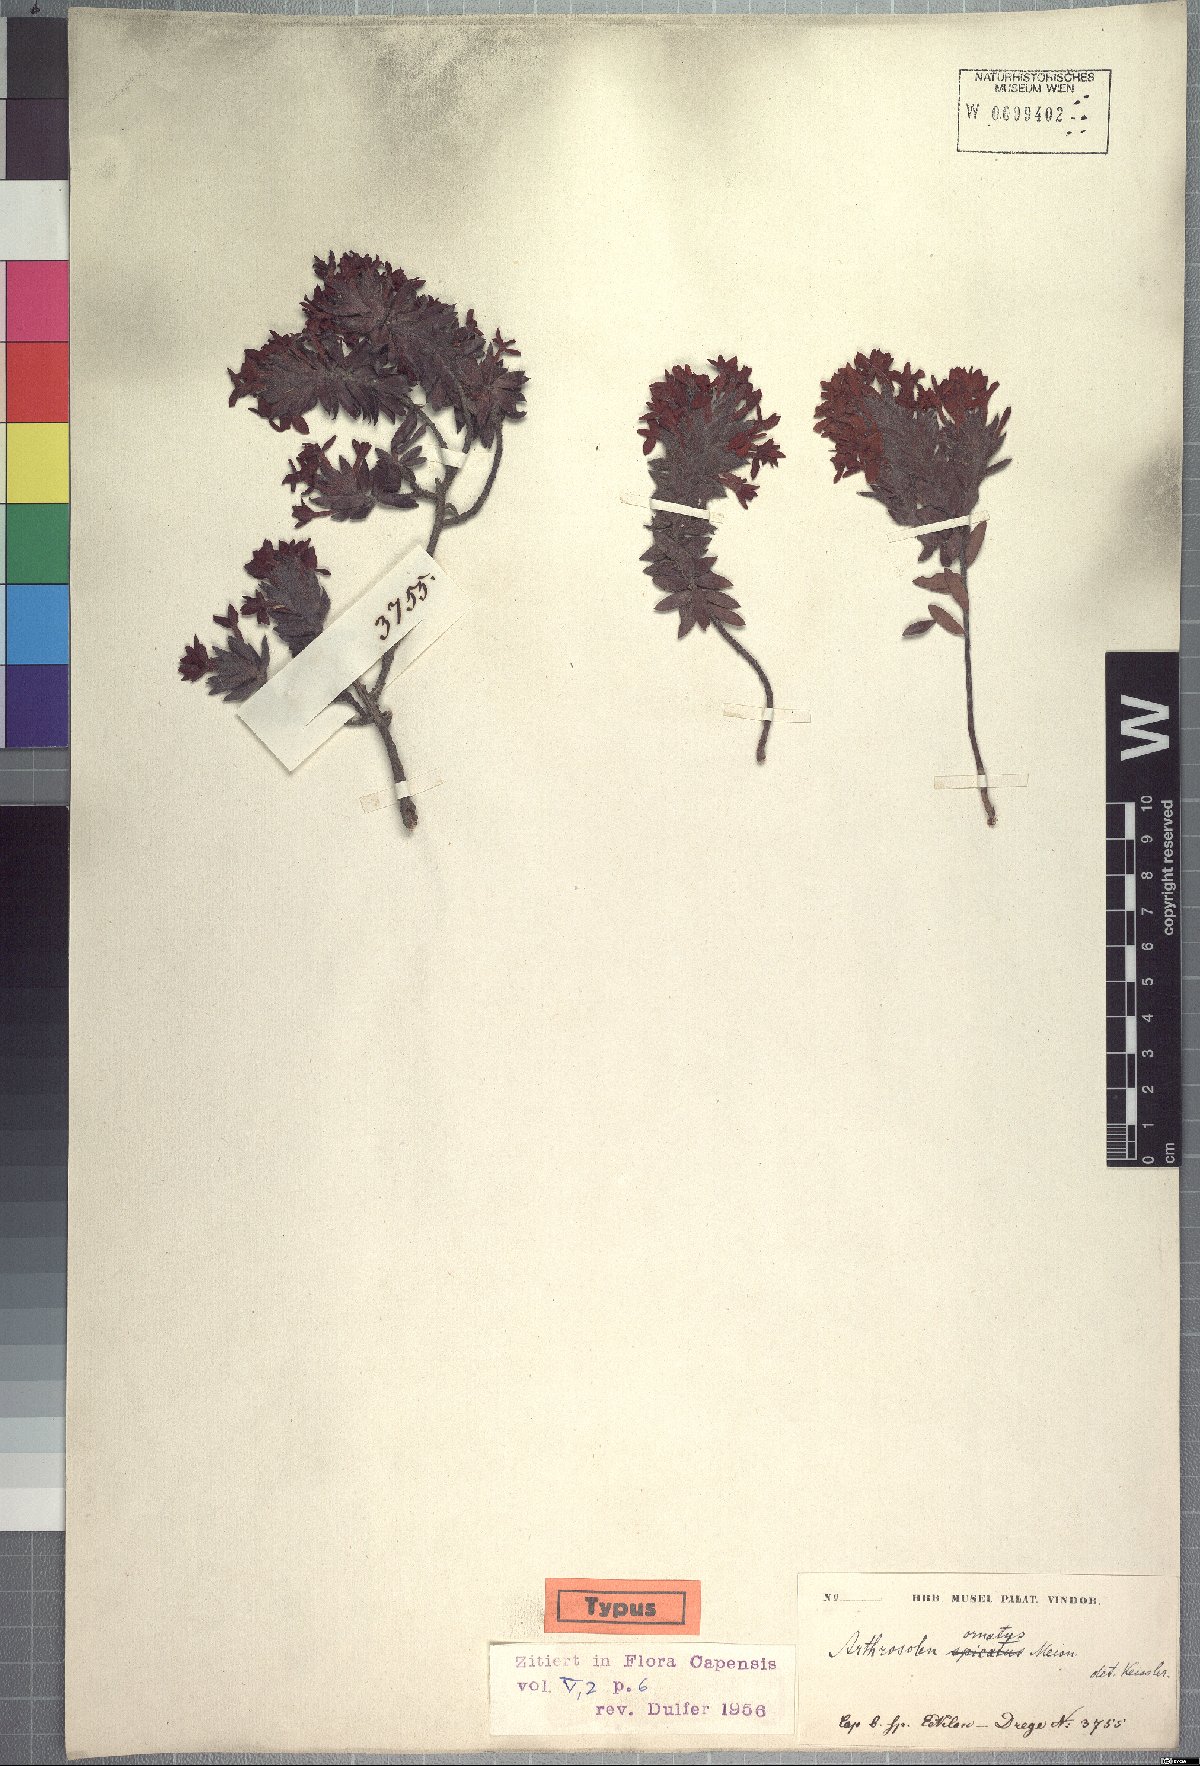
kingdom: Plantae
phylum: Tracheophyta
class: Magnoliopsida
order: Malvales
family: Thymelaeaceae
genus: Gnidia
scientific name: Gnidia ornata
